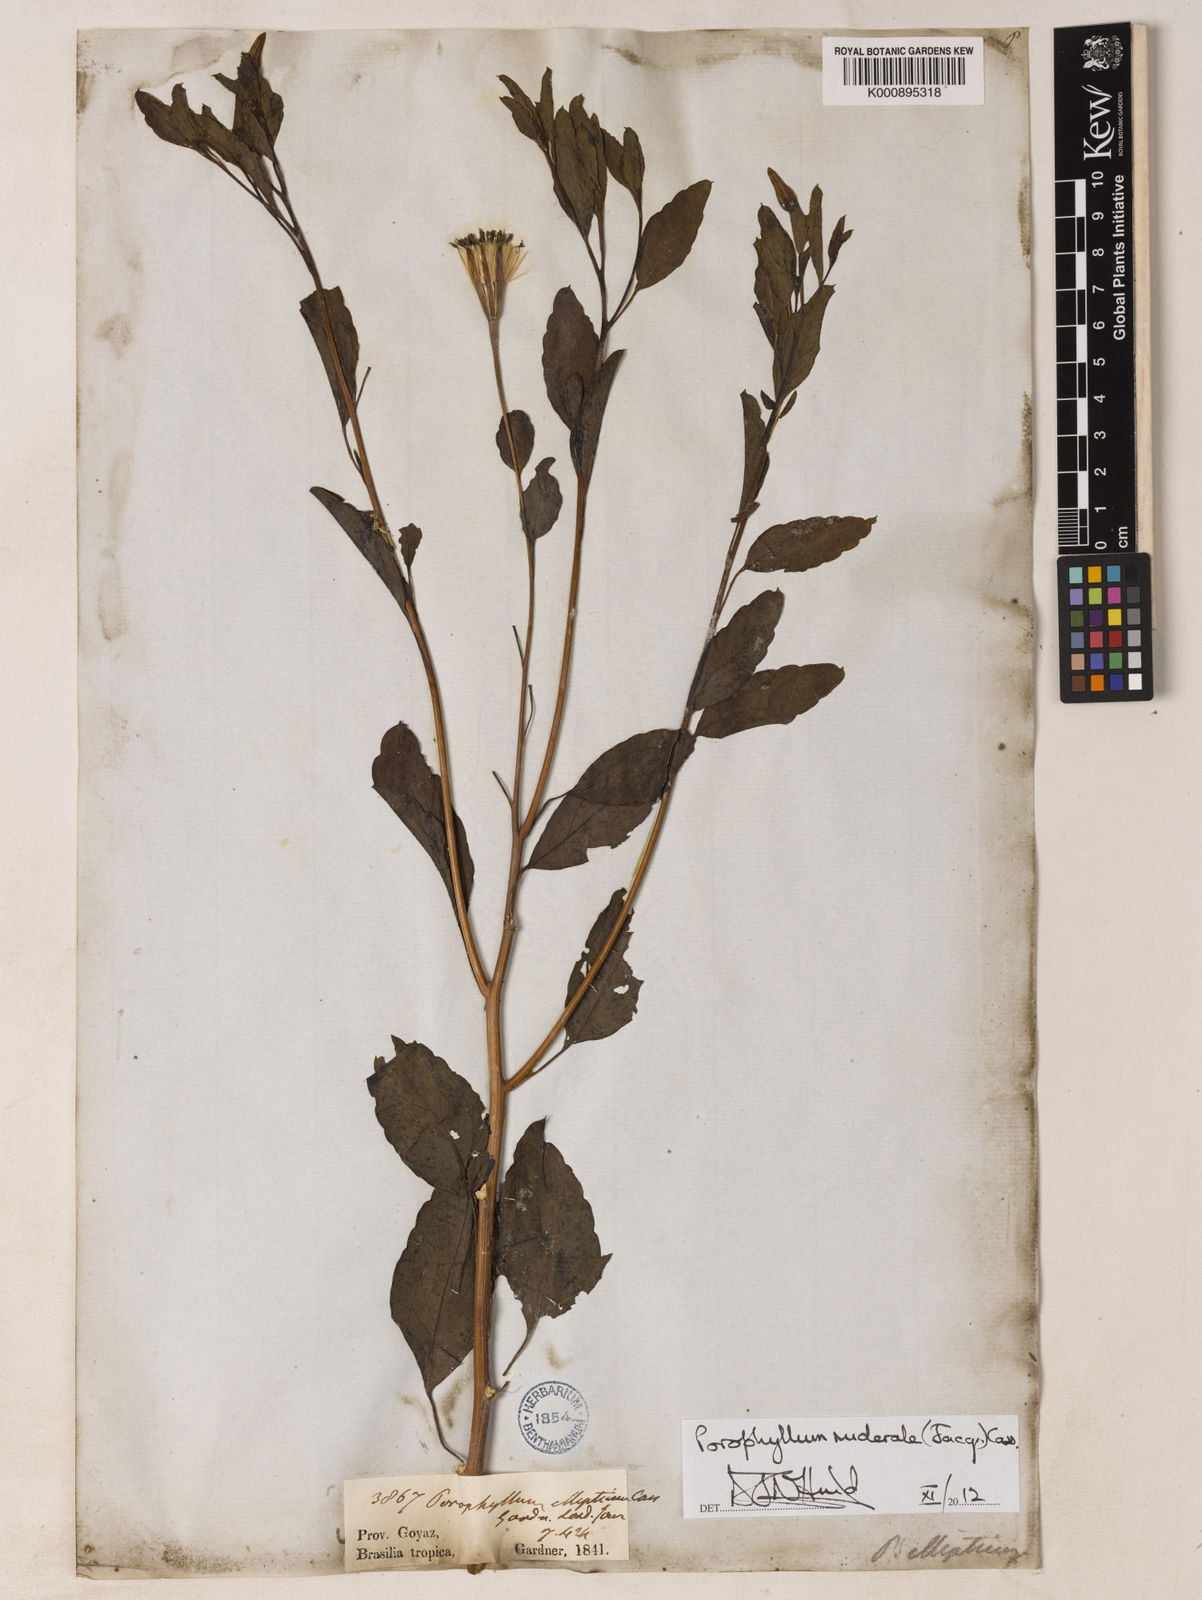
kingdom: Plantae
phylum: Tracheophyta
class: Magnoliopsida
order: Asterales
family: Asteraceae
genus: Porophyllum
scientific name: Porophyllum ruderale
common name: Yerba porosa
